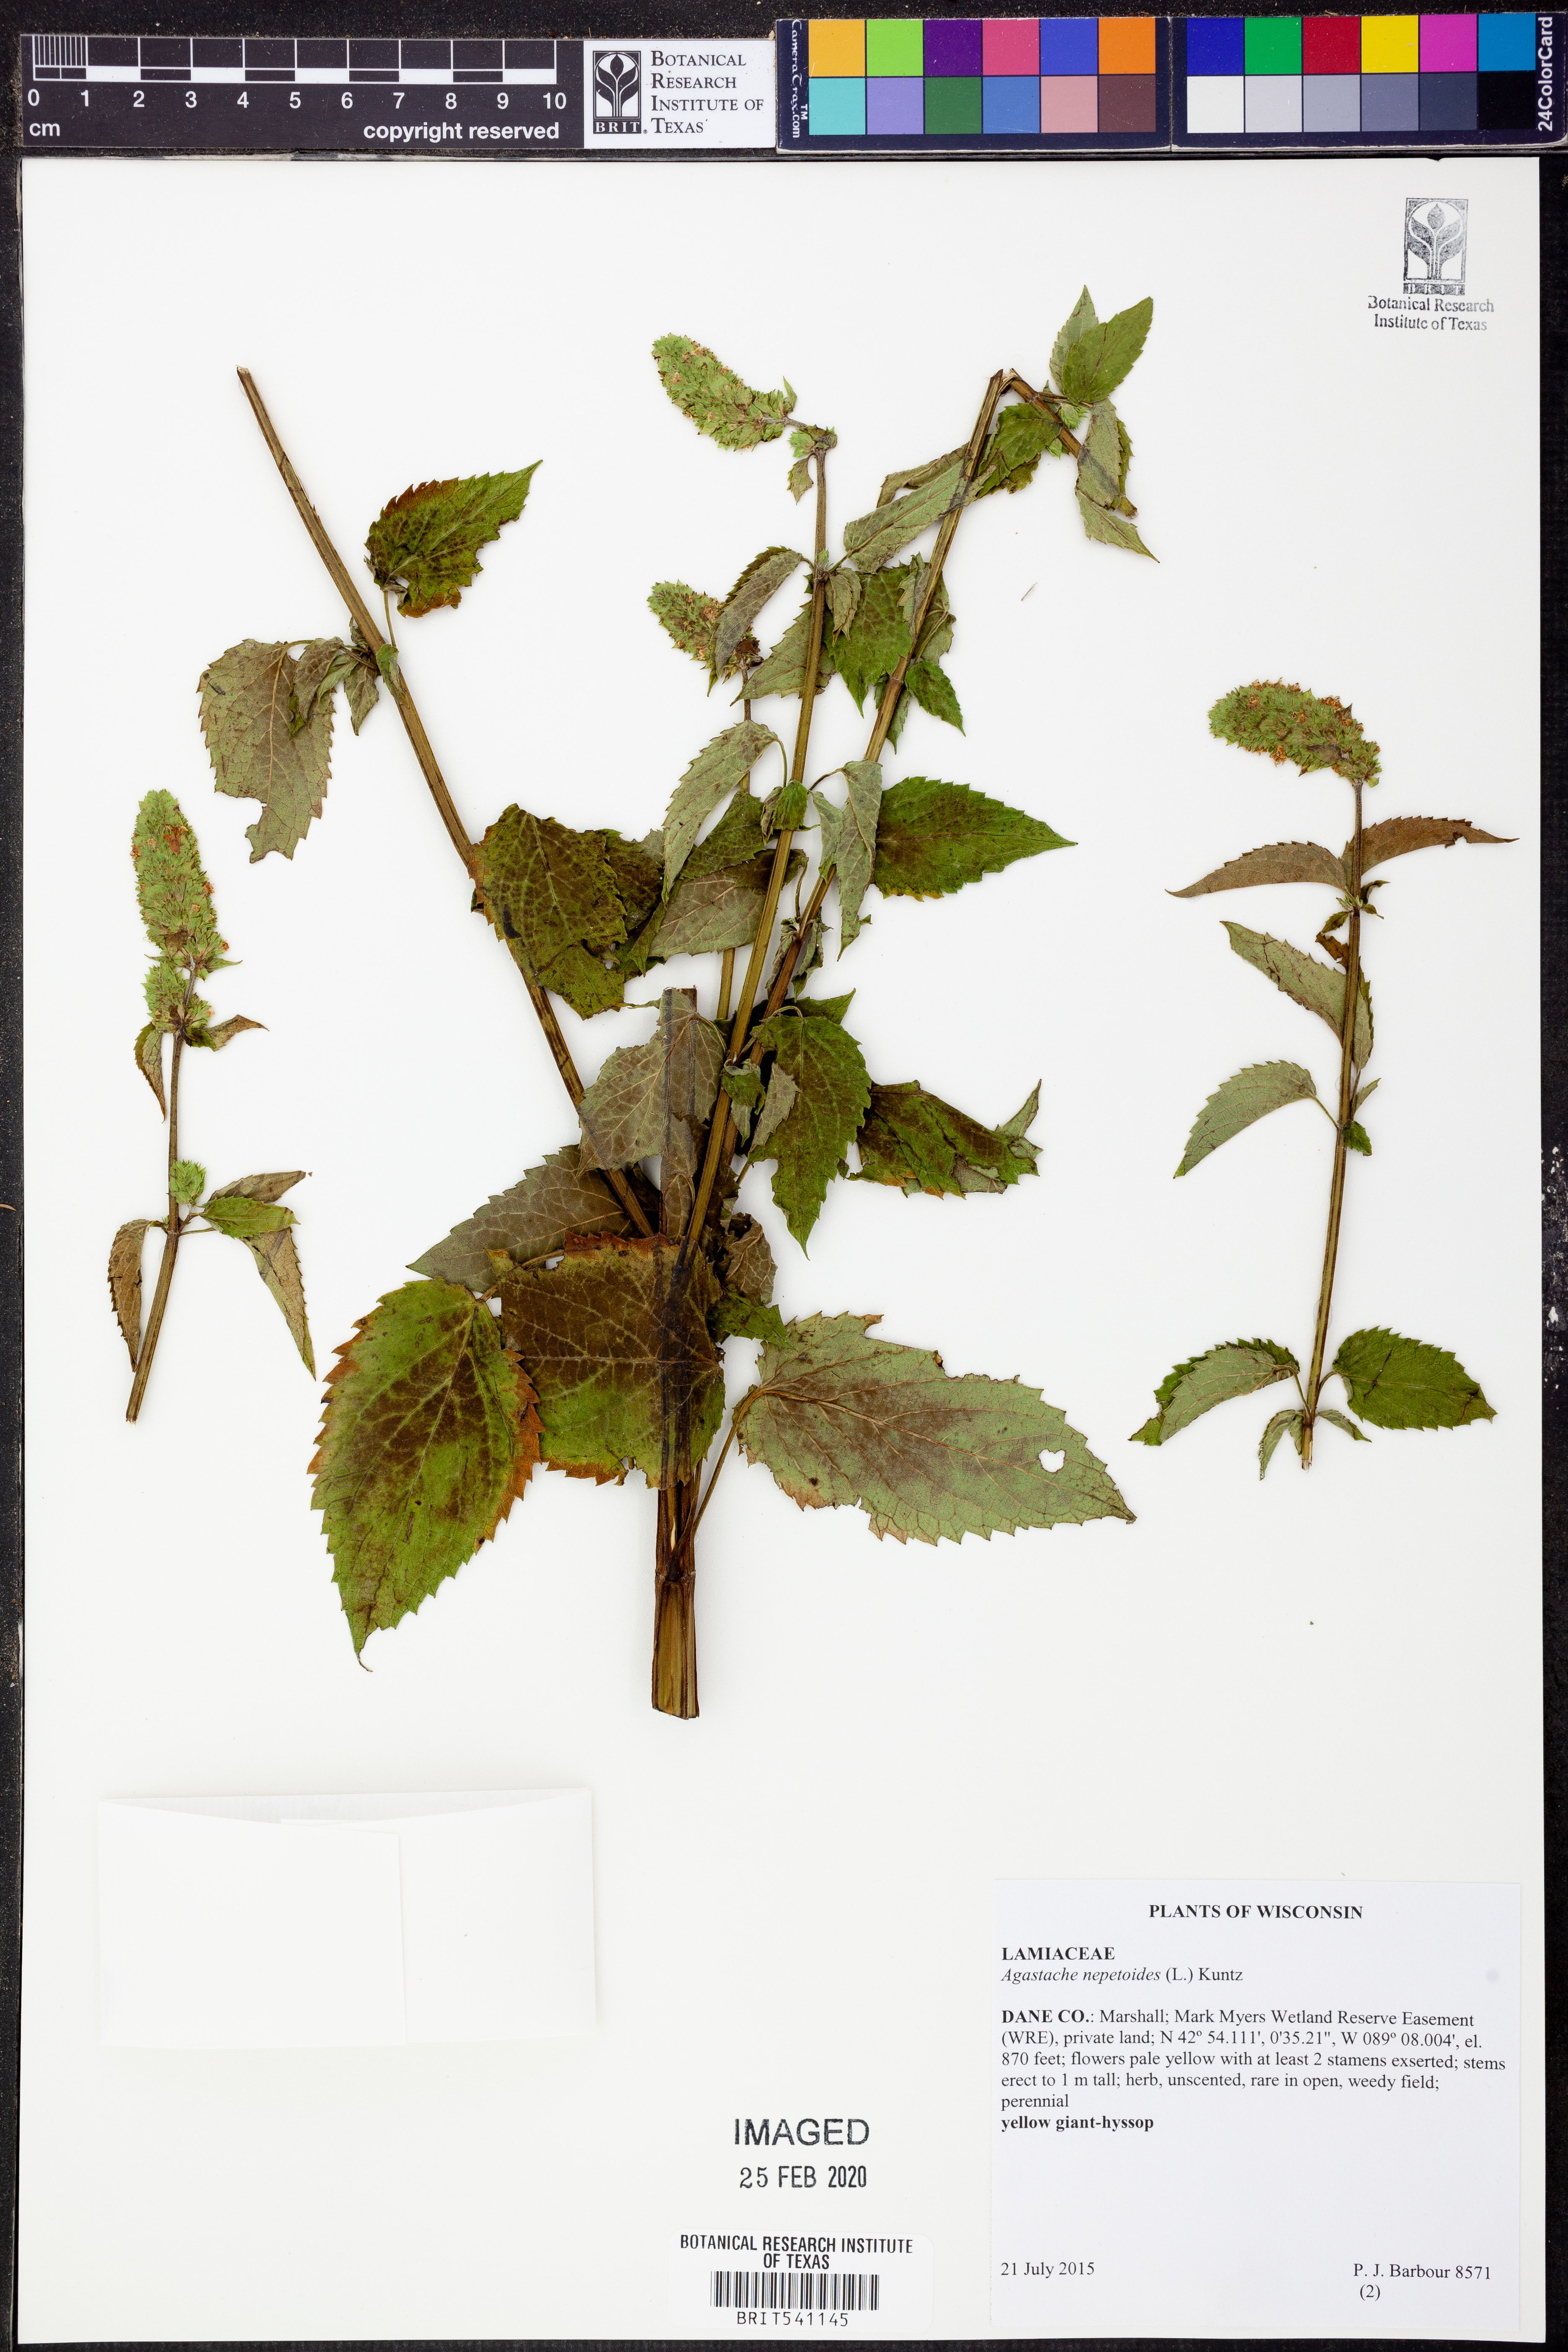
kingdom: Plantae
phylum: Tracheophyta
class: Magnoliopsida
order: Lamiales
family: Lamiaceae
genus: Agastache
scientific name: Agastache nepetoides
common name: Catnip giant hyssop
